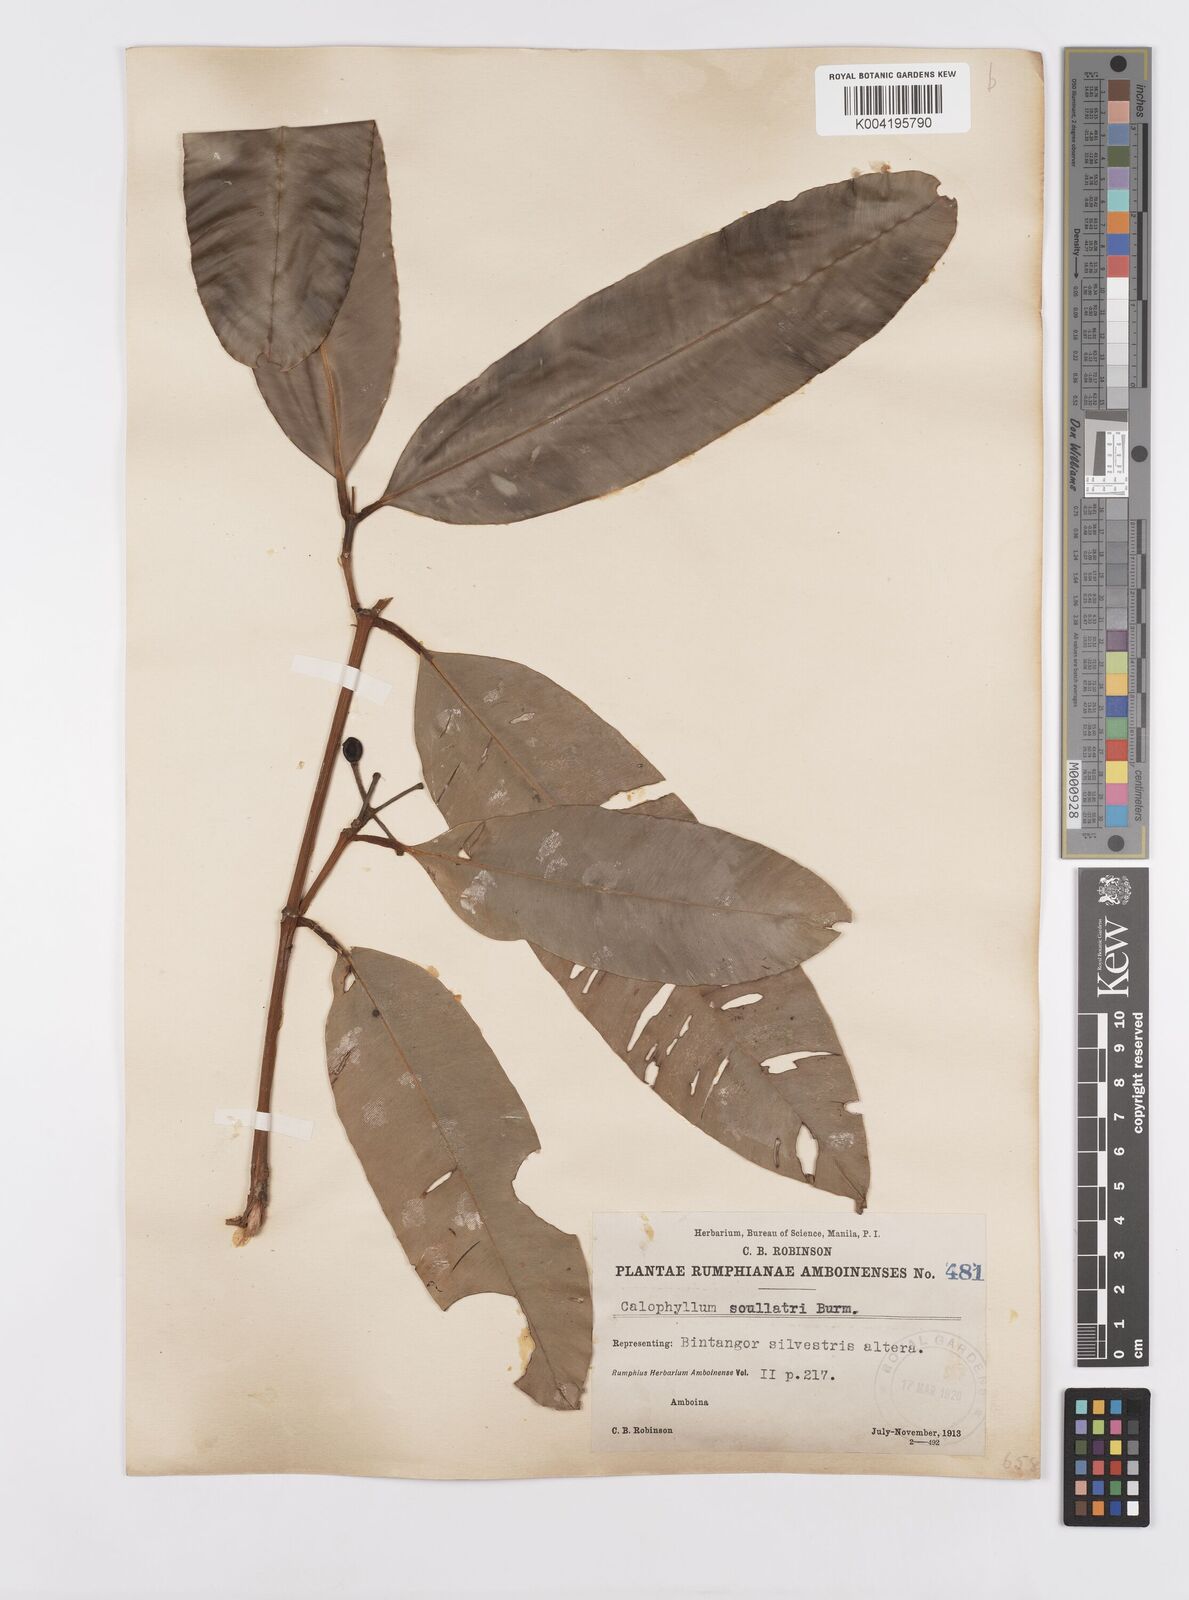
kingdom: Plantae
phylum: Tracheophyta
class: Magnoliopsida
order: Malpighiales
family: Calophyllaceae
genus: Calophyllum
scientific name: Calophyllum soulattri
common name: Bitangoor boonot
